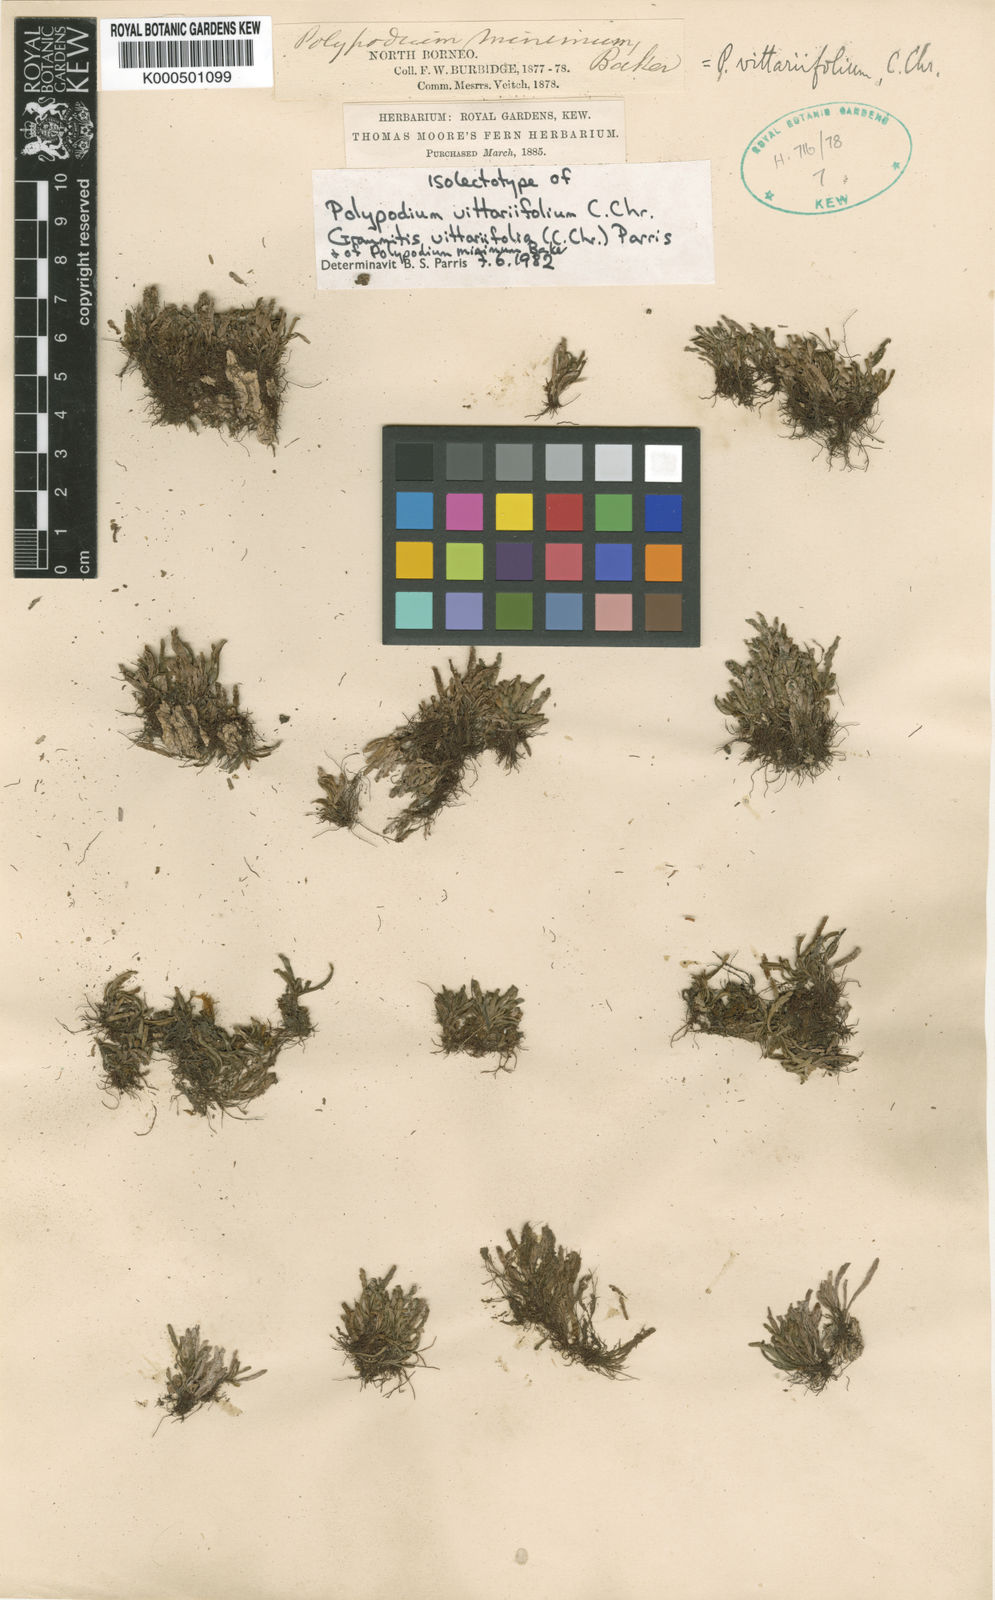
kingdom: Plantae
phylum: Tracheophyta
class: Polypodiopsida
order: Polypodiales
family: Polypodiaceae
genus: Oreogrammitis
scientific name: Oreogrammitis vittariifolia
